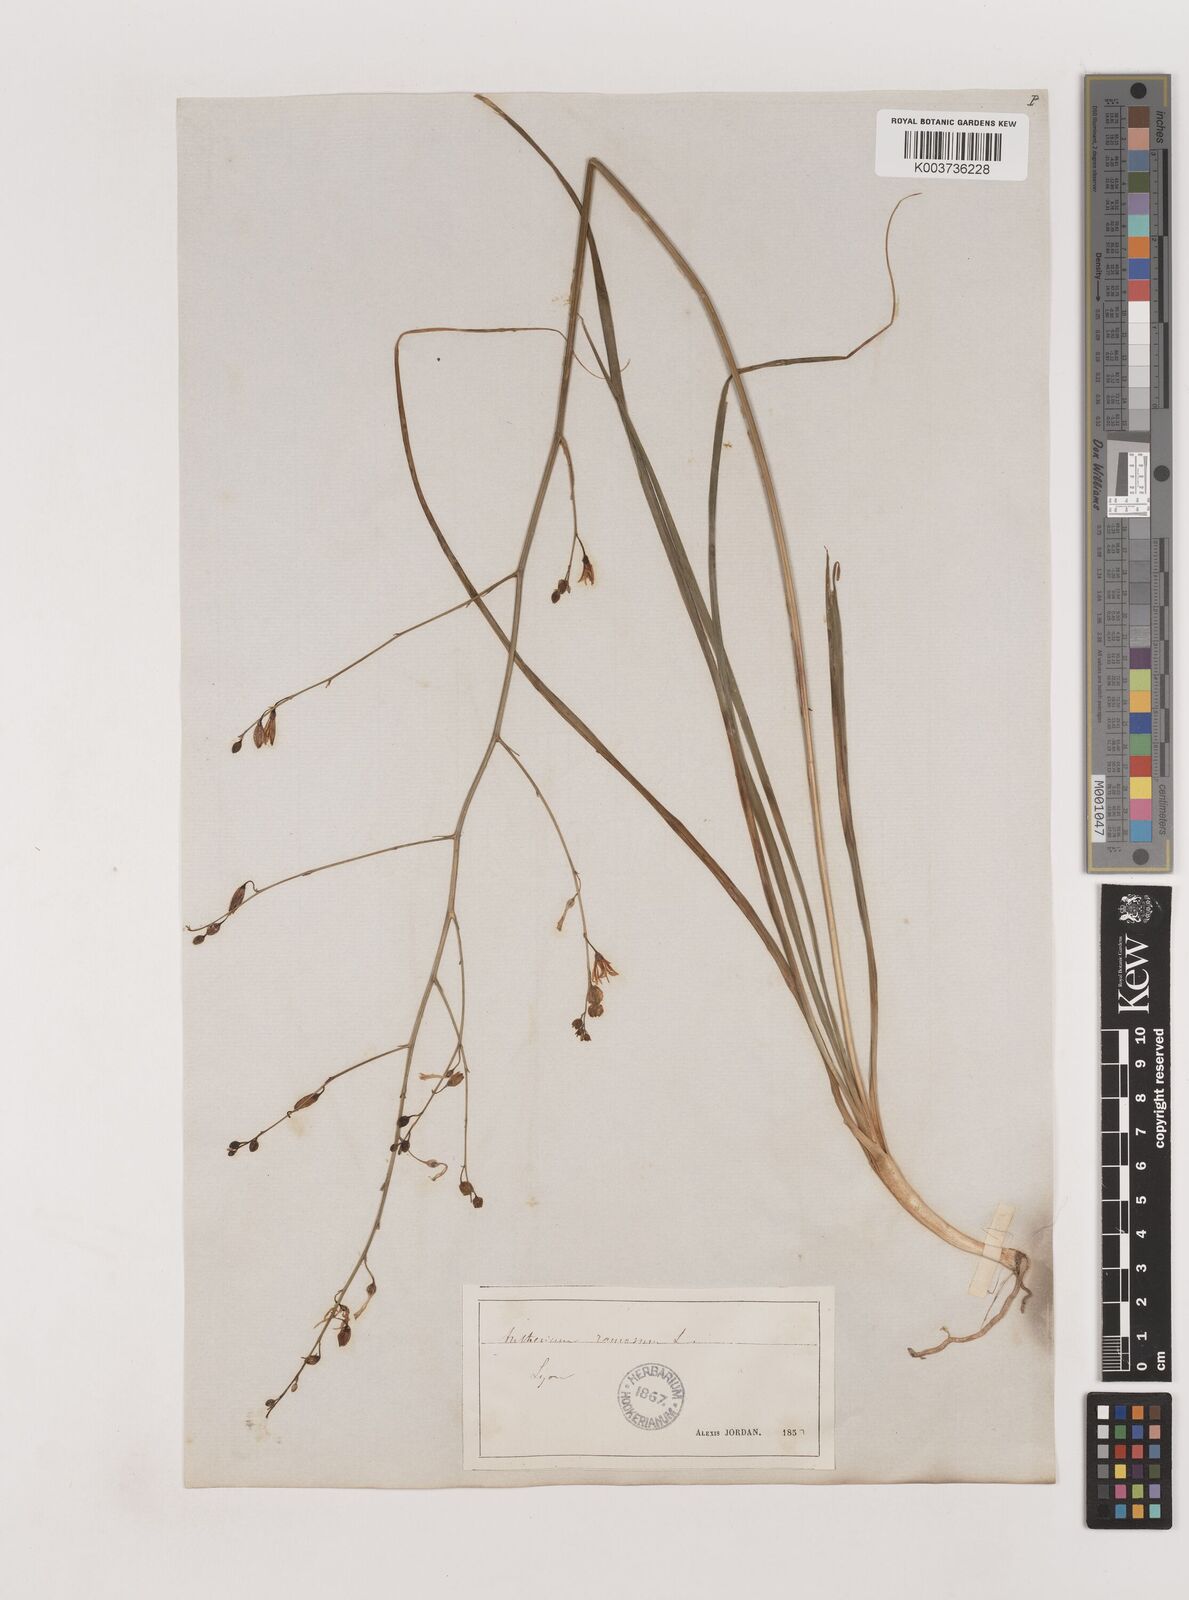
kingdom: Plantae
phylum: Tracheophyta
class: Liliopsida
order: Asparagales
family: Asparagaceae
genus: Anthericum
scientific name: Anthericum ramosum
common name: Branched st. bernard's-lily
